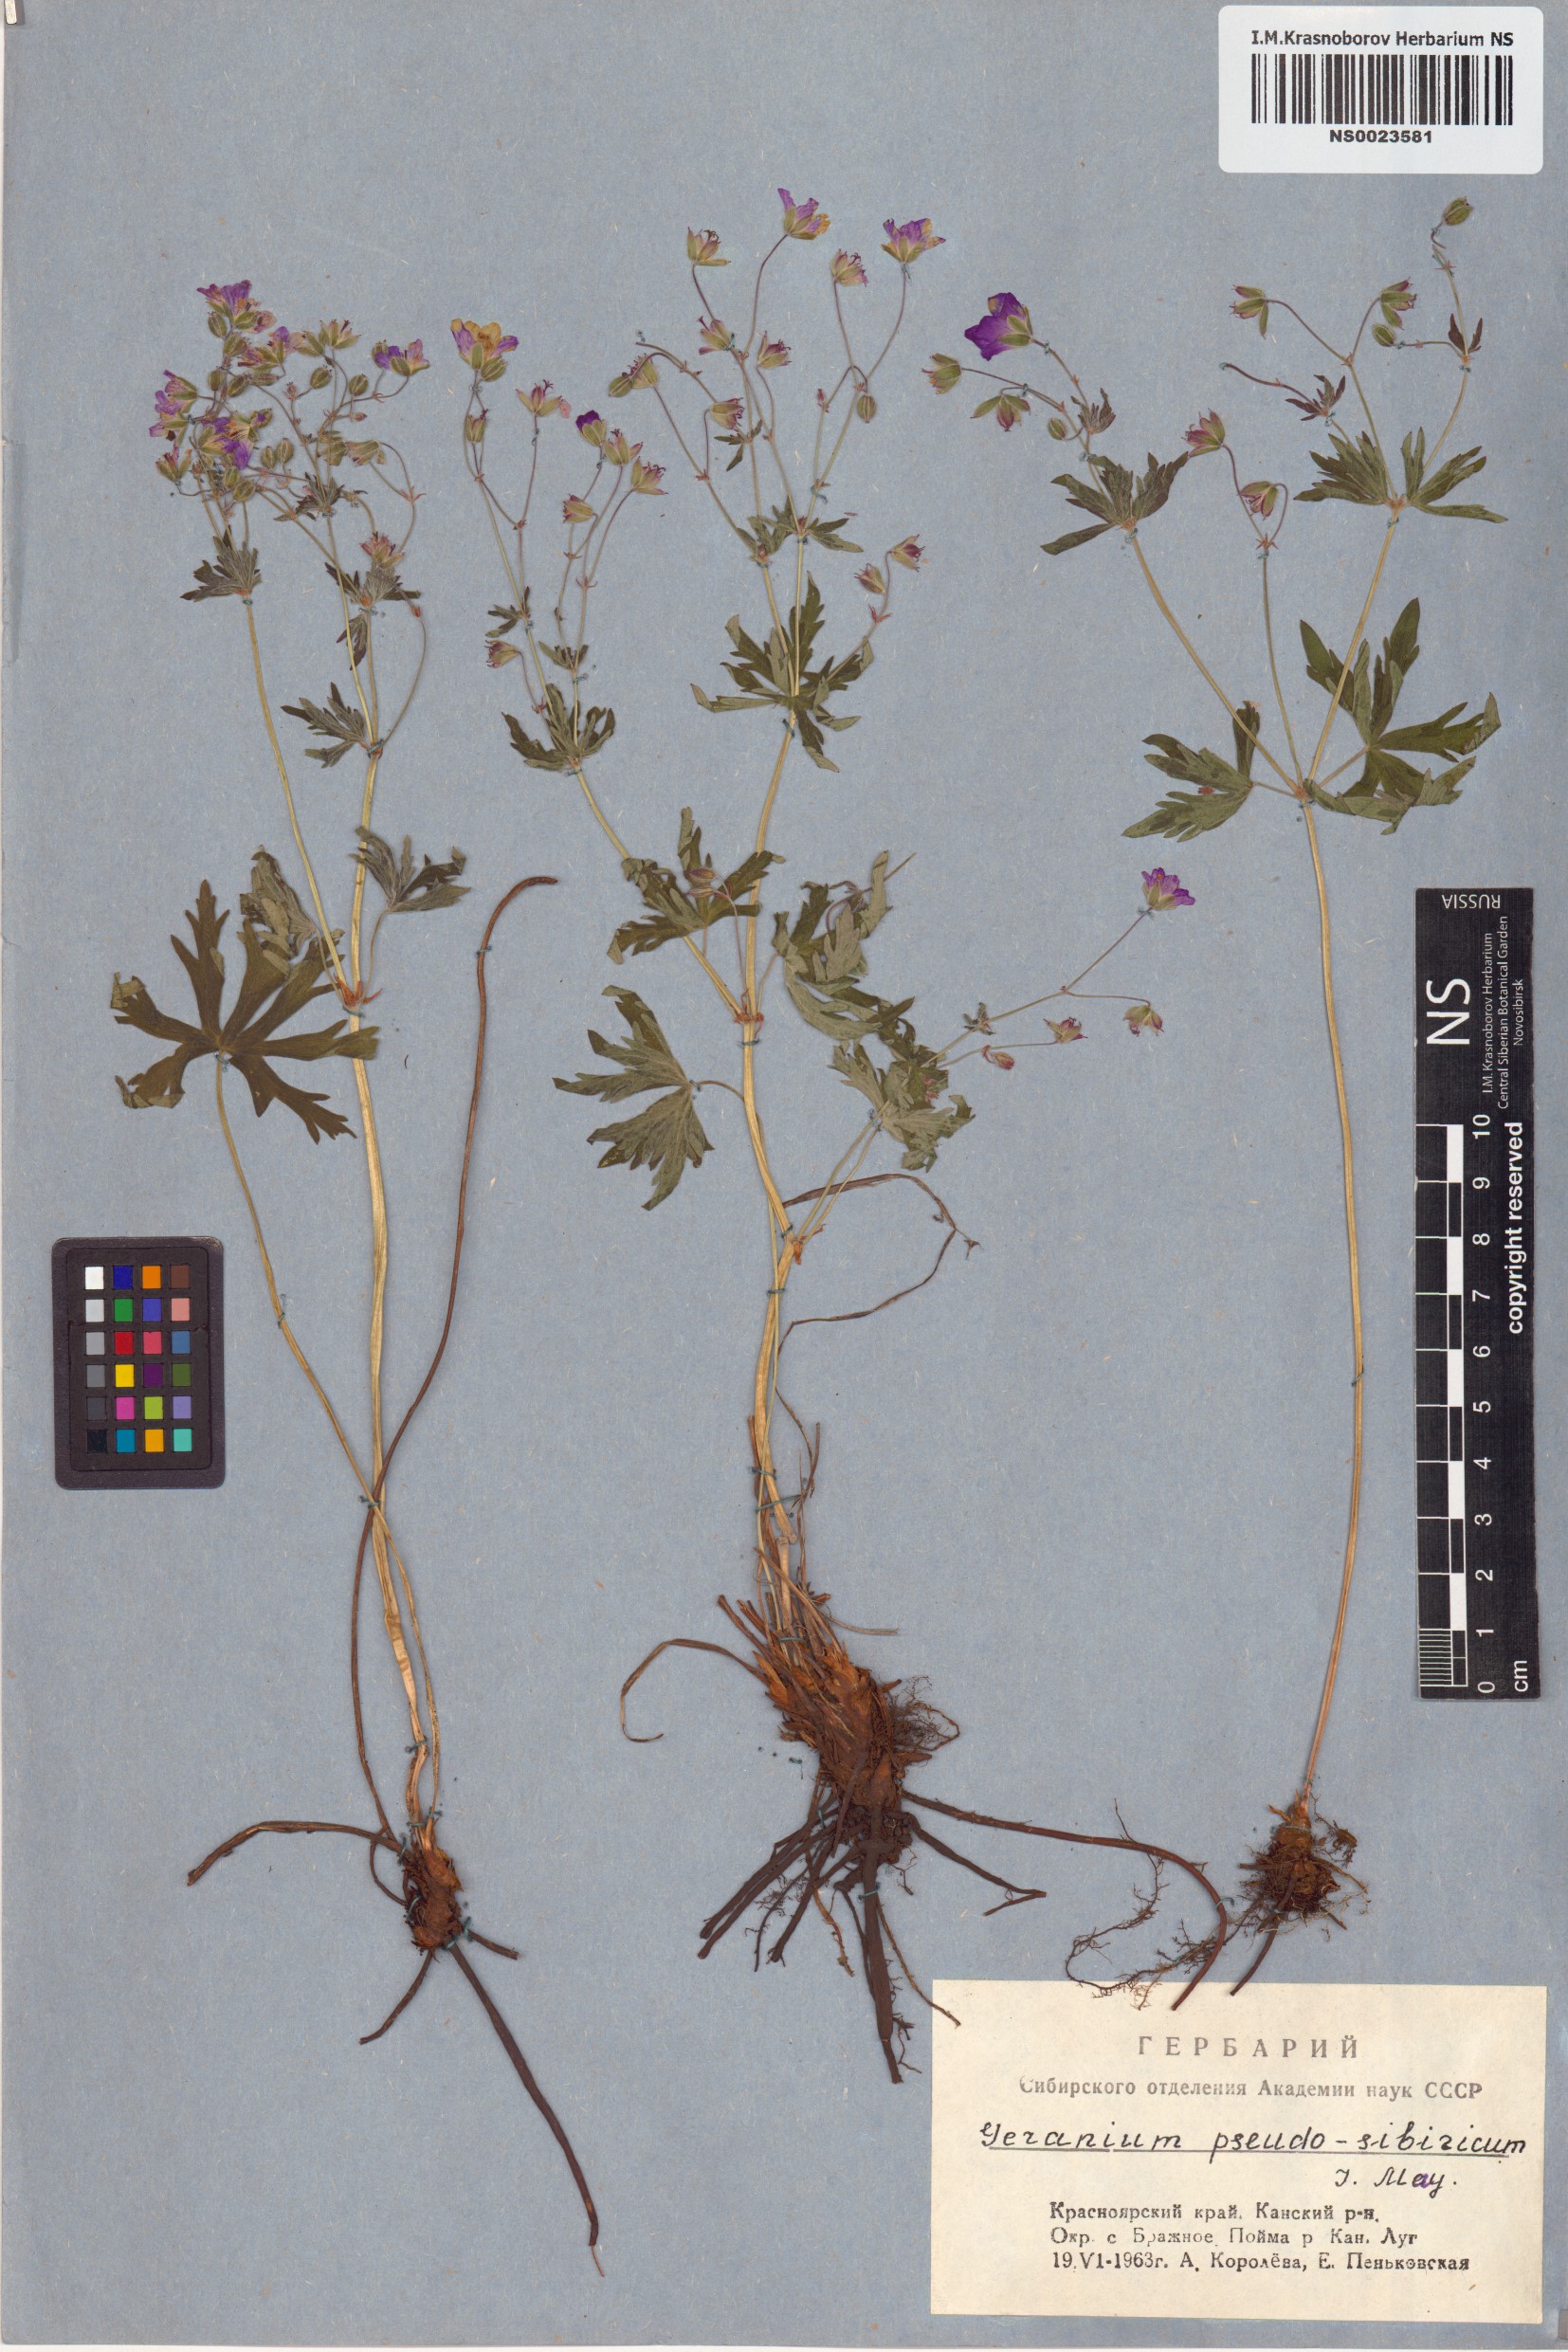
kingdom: Plantae
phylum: Tracheophyta
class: Magnoliopsida
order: Geraniales
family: Geraniaceae
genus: Geranium
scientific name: Geranium pseudosibiricum
